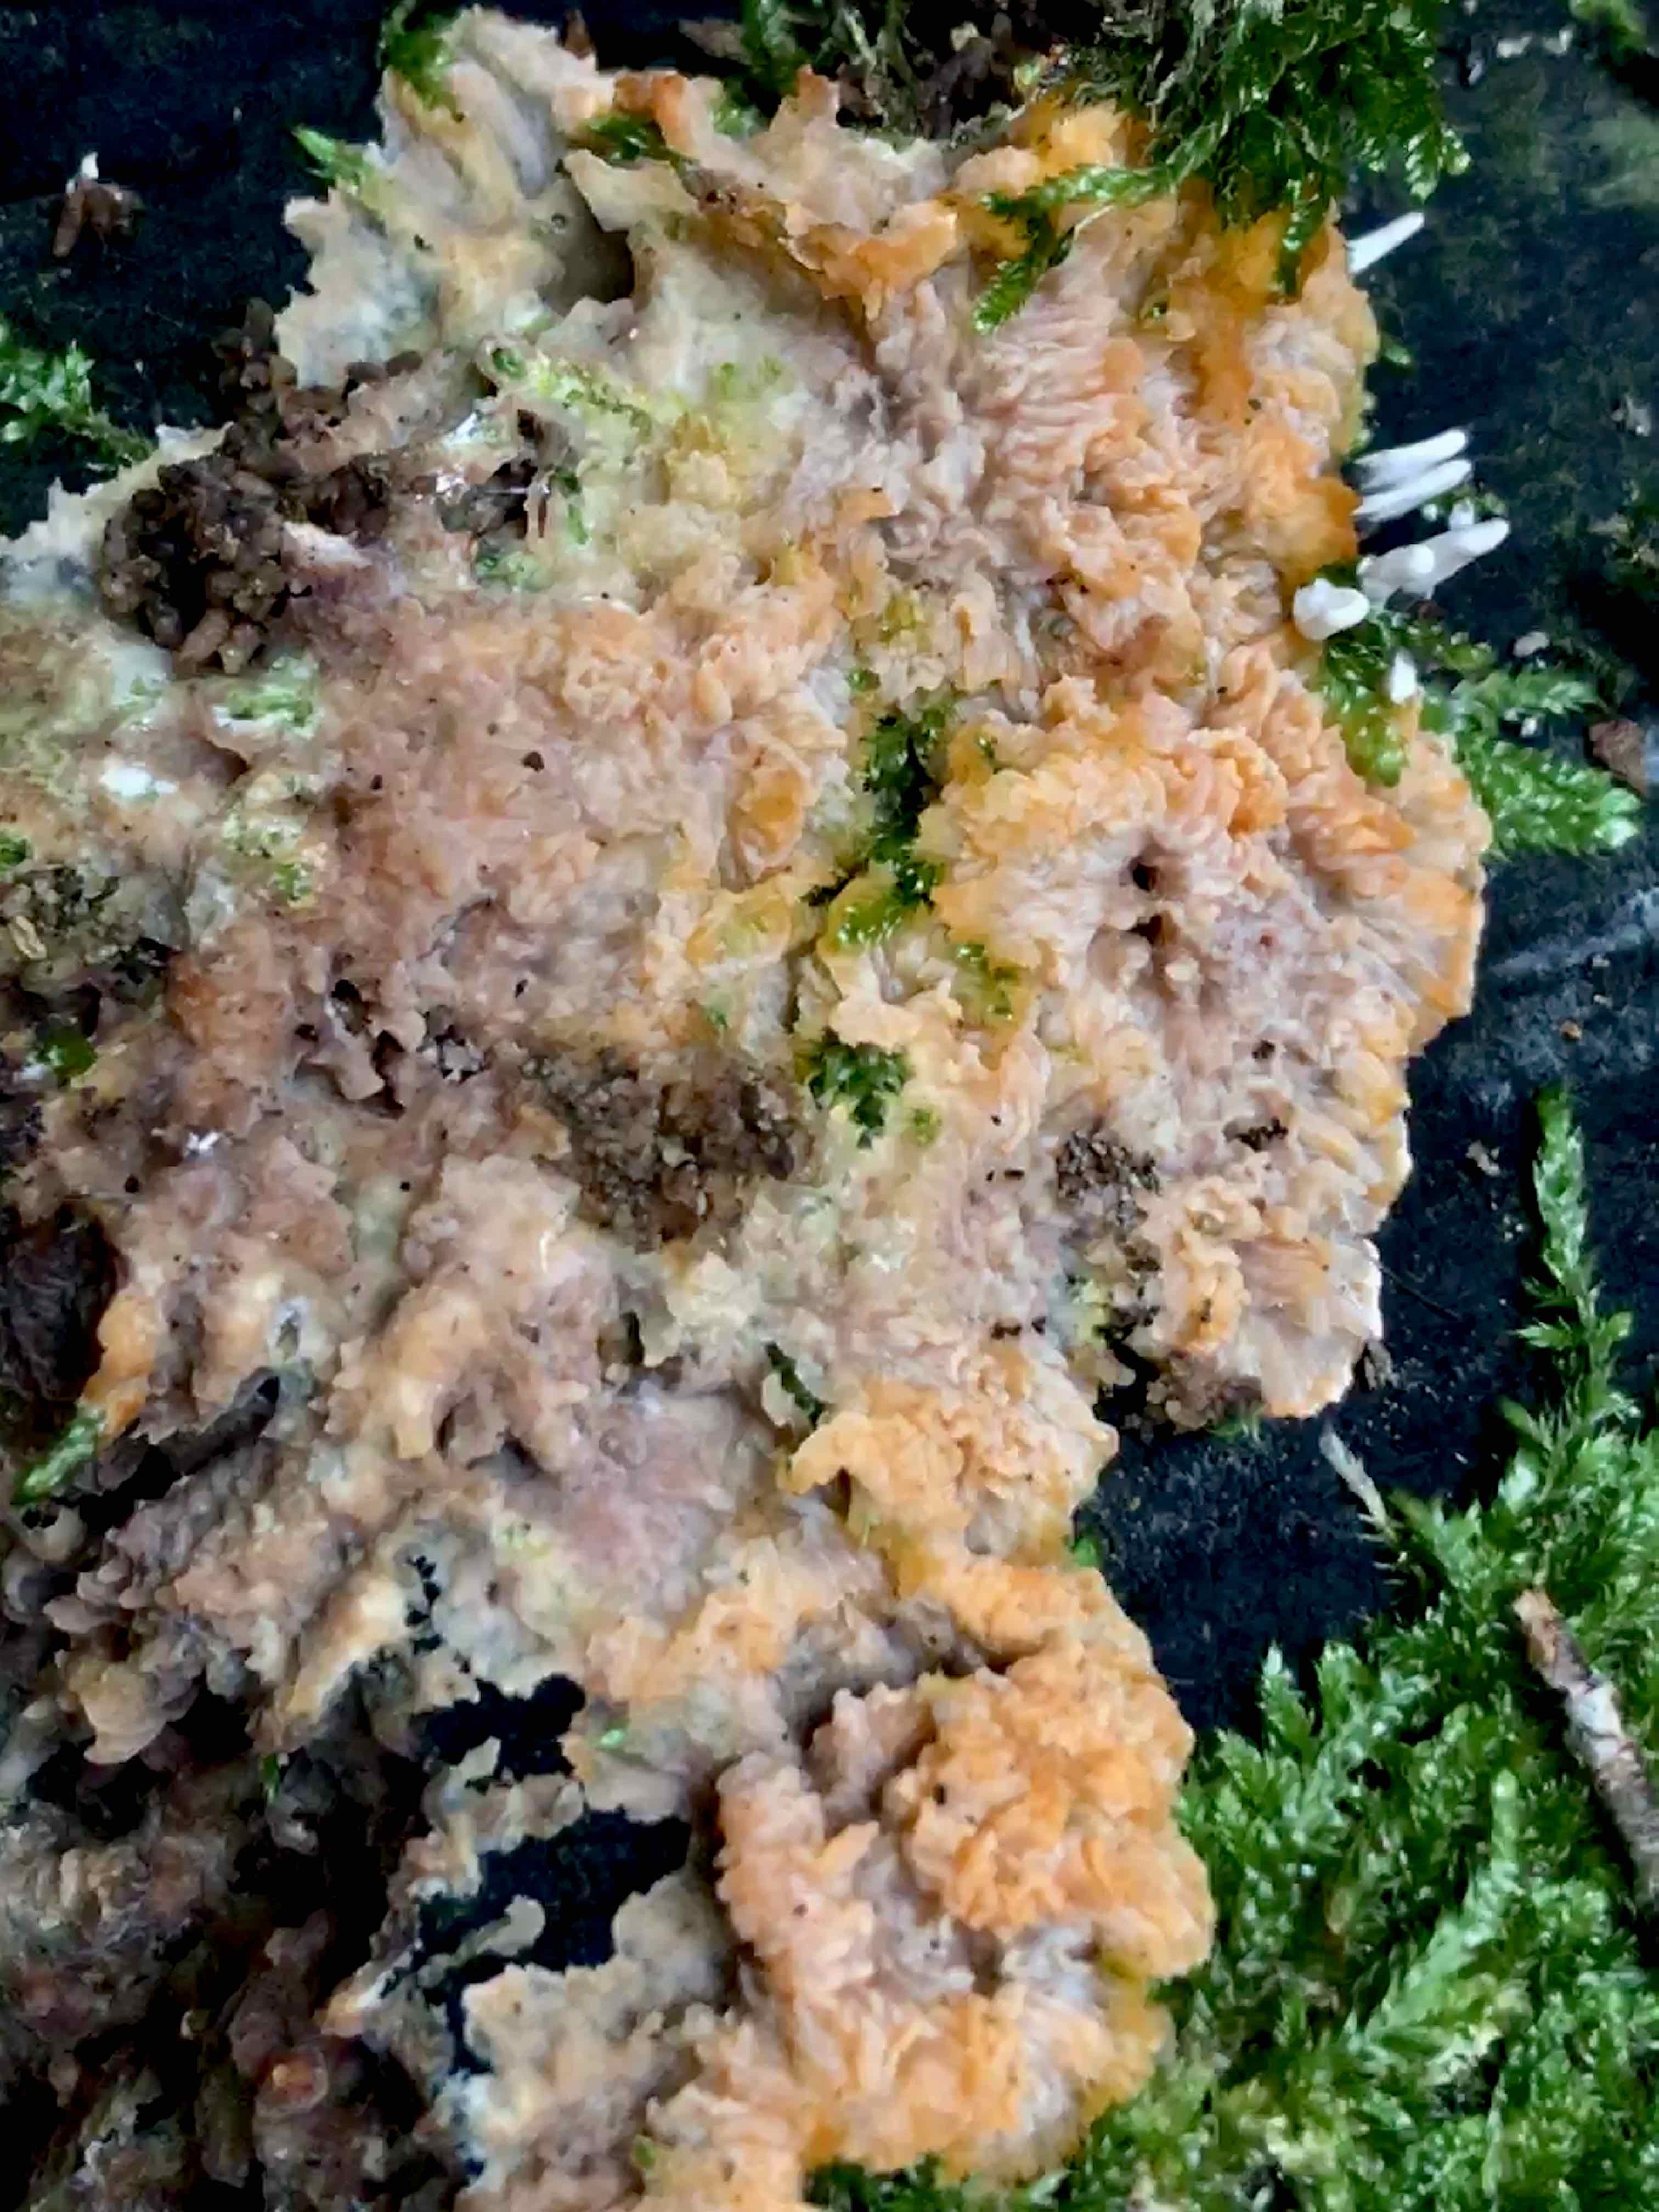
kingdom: Fungi
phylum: Basidiomycota
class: Agaricomycetes
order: Polyporales
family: Meruliaceae
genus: Phlebia
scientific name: Phlebia radiata
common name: stråle-åresvamp
